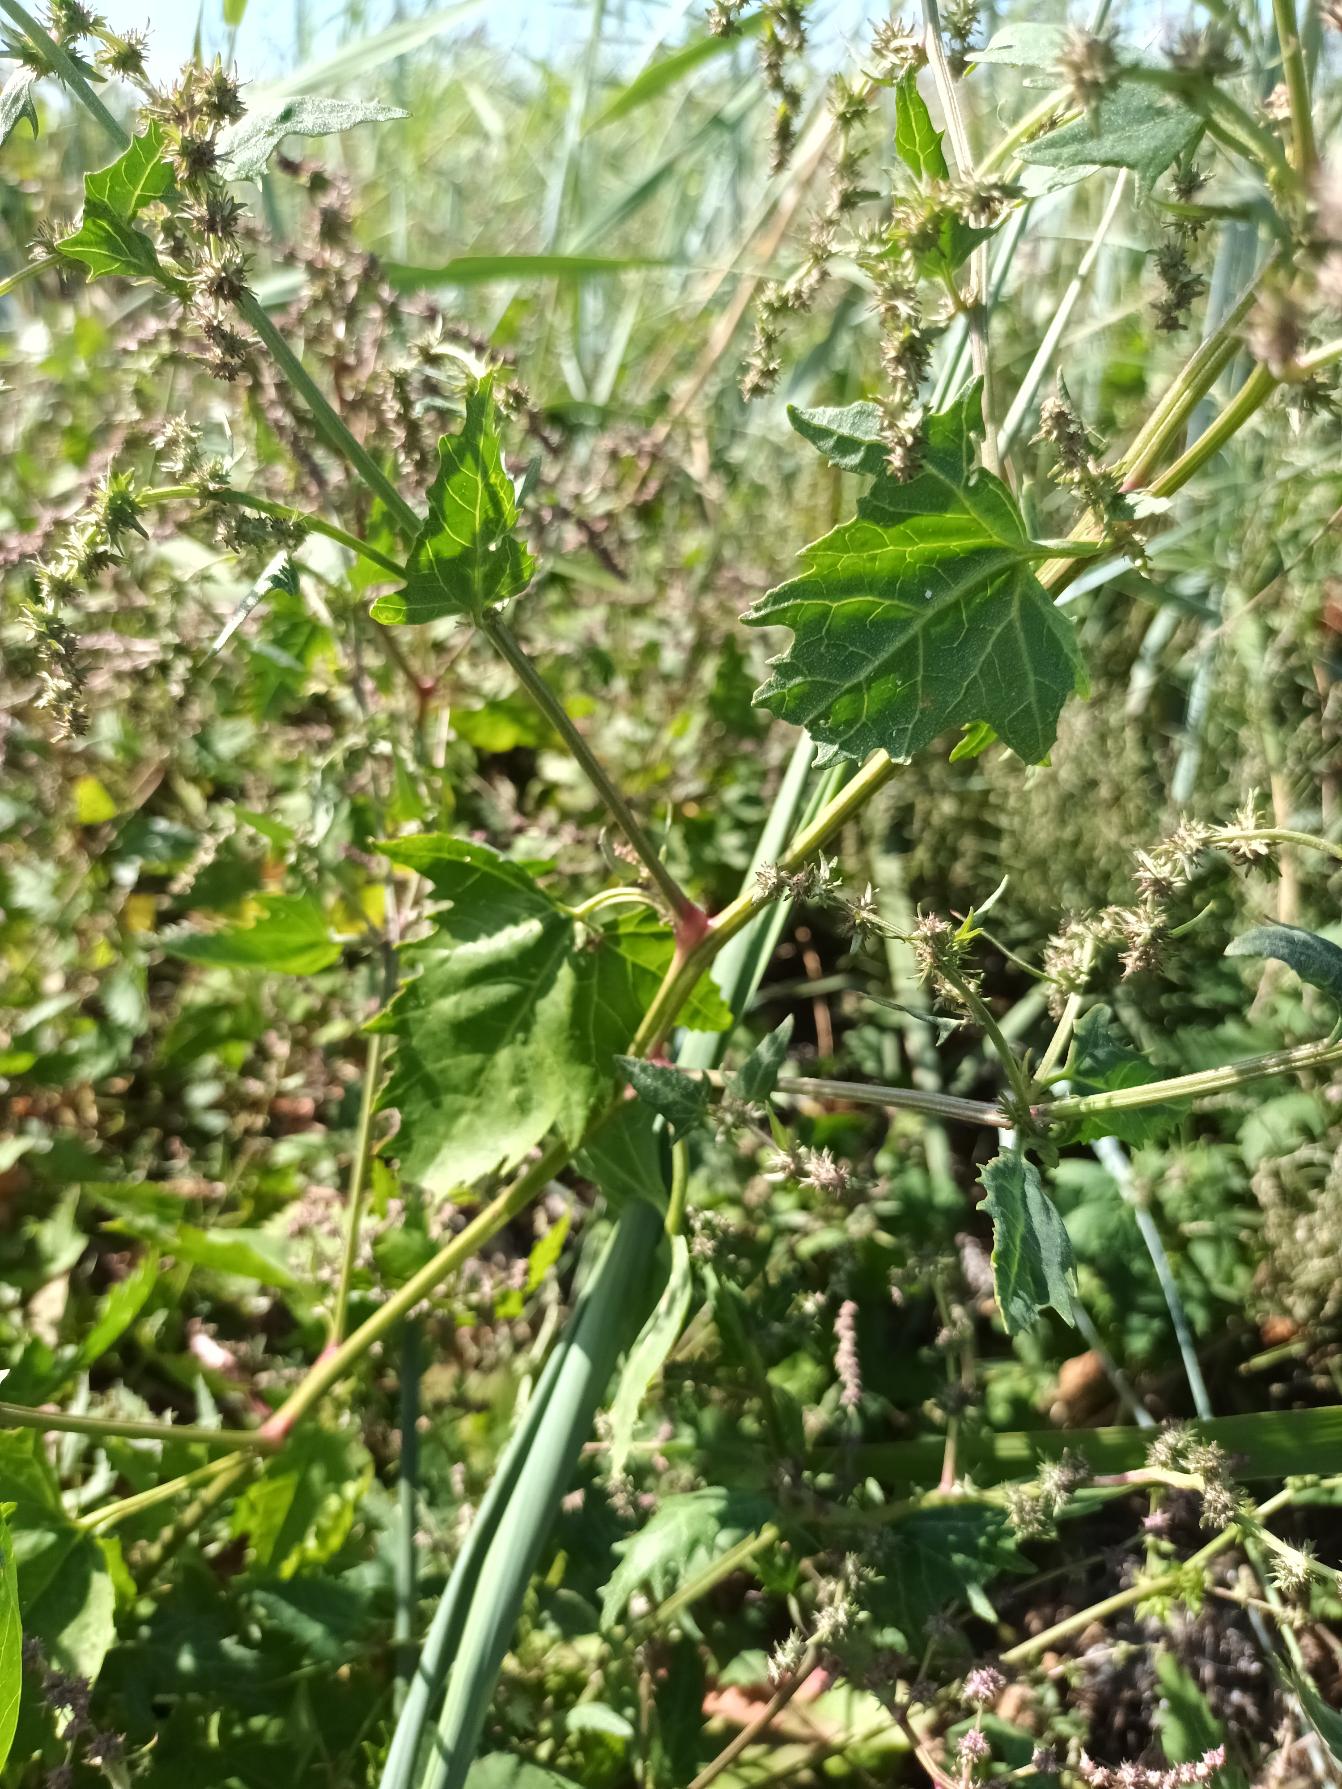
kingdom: Plantae
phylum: Tracheophyta
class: Magnoliopsida
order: Caryophyllales
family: Amaranthaceae
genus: Atriplex
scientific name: Atriplex calotheca
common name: Skønbægret mælde
